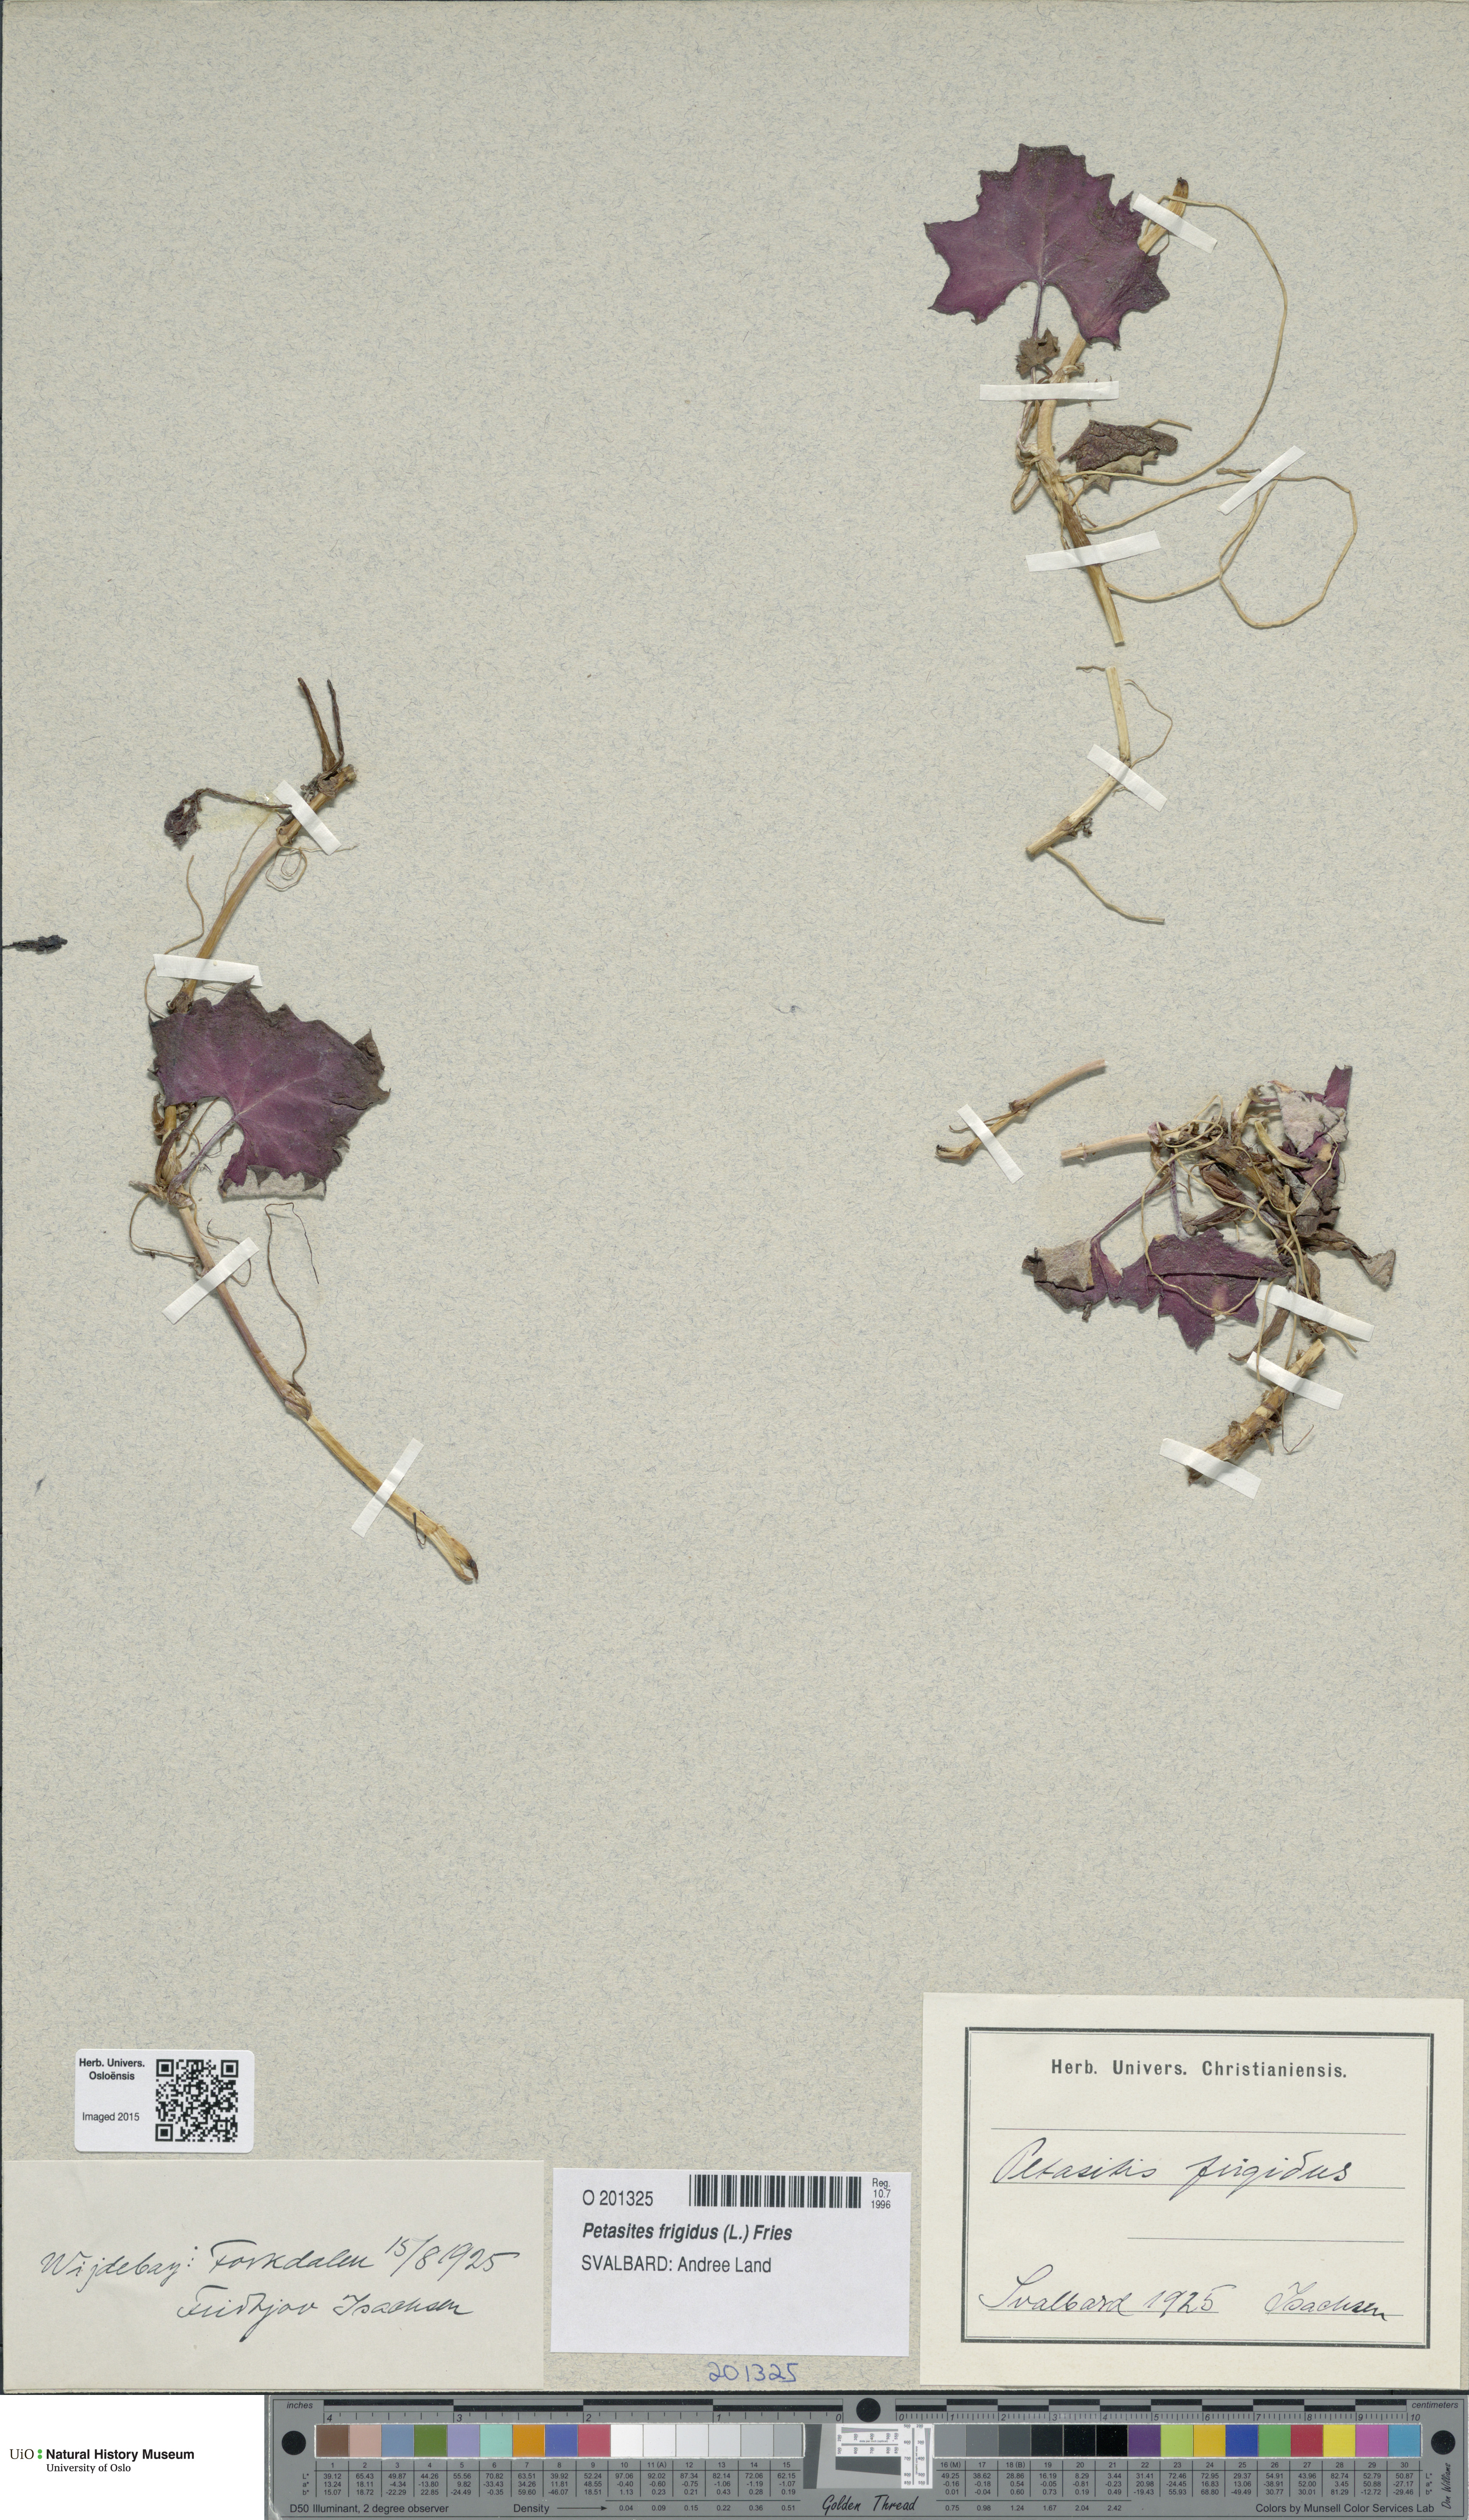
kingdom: Plantae
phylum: Tracheophyta
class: Magnoliopsida
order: Asterales
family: Asteraceae
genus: Petasites
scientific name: Petasites frigidus
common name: Arctic butterbur
